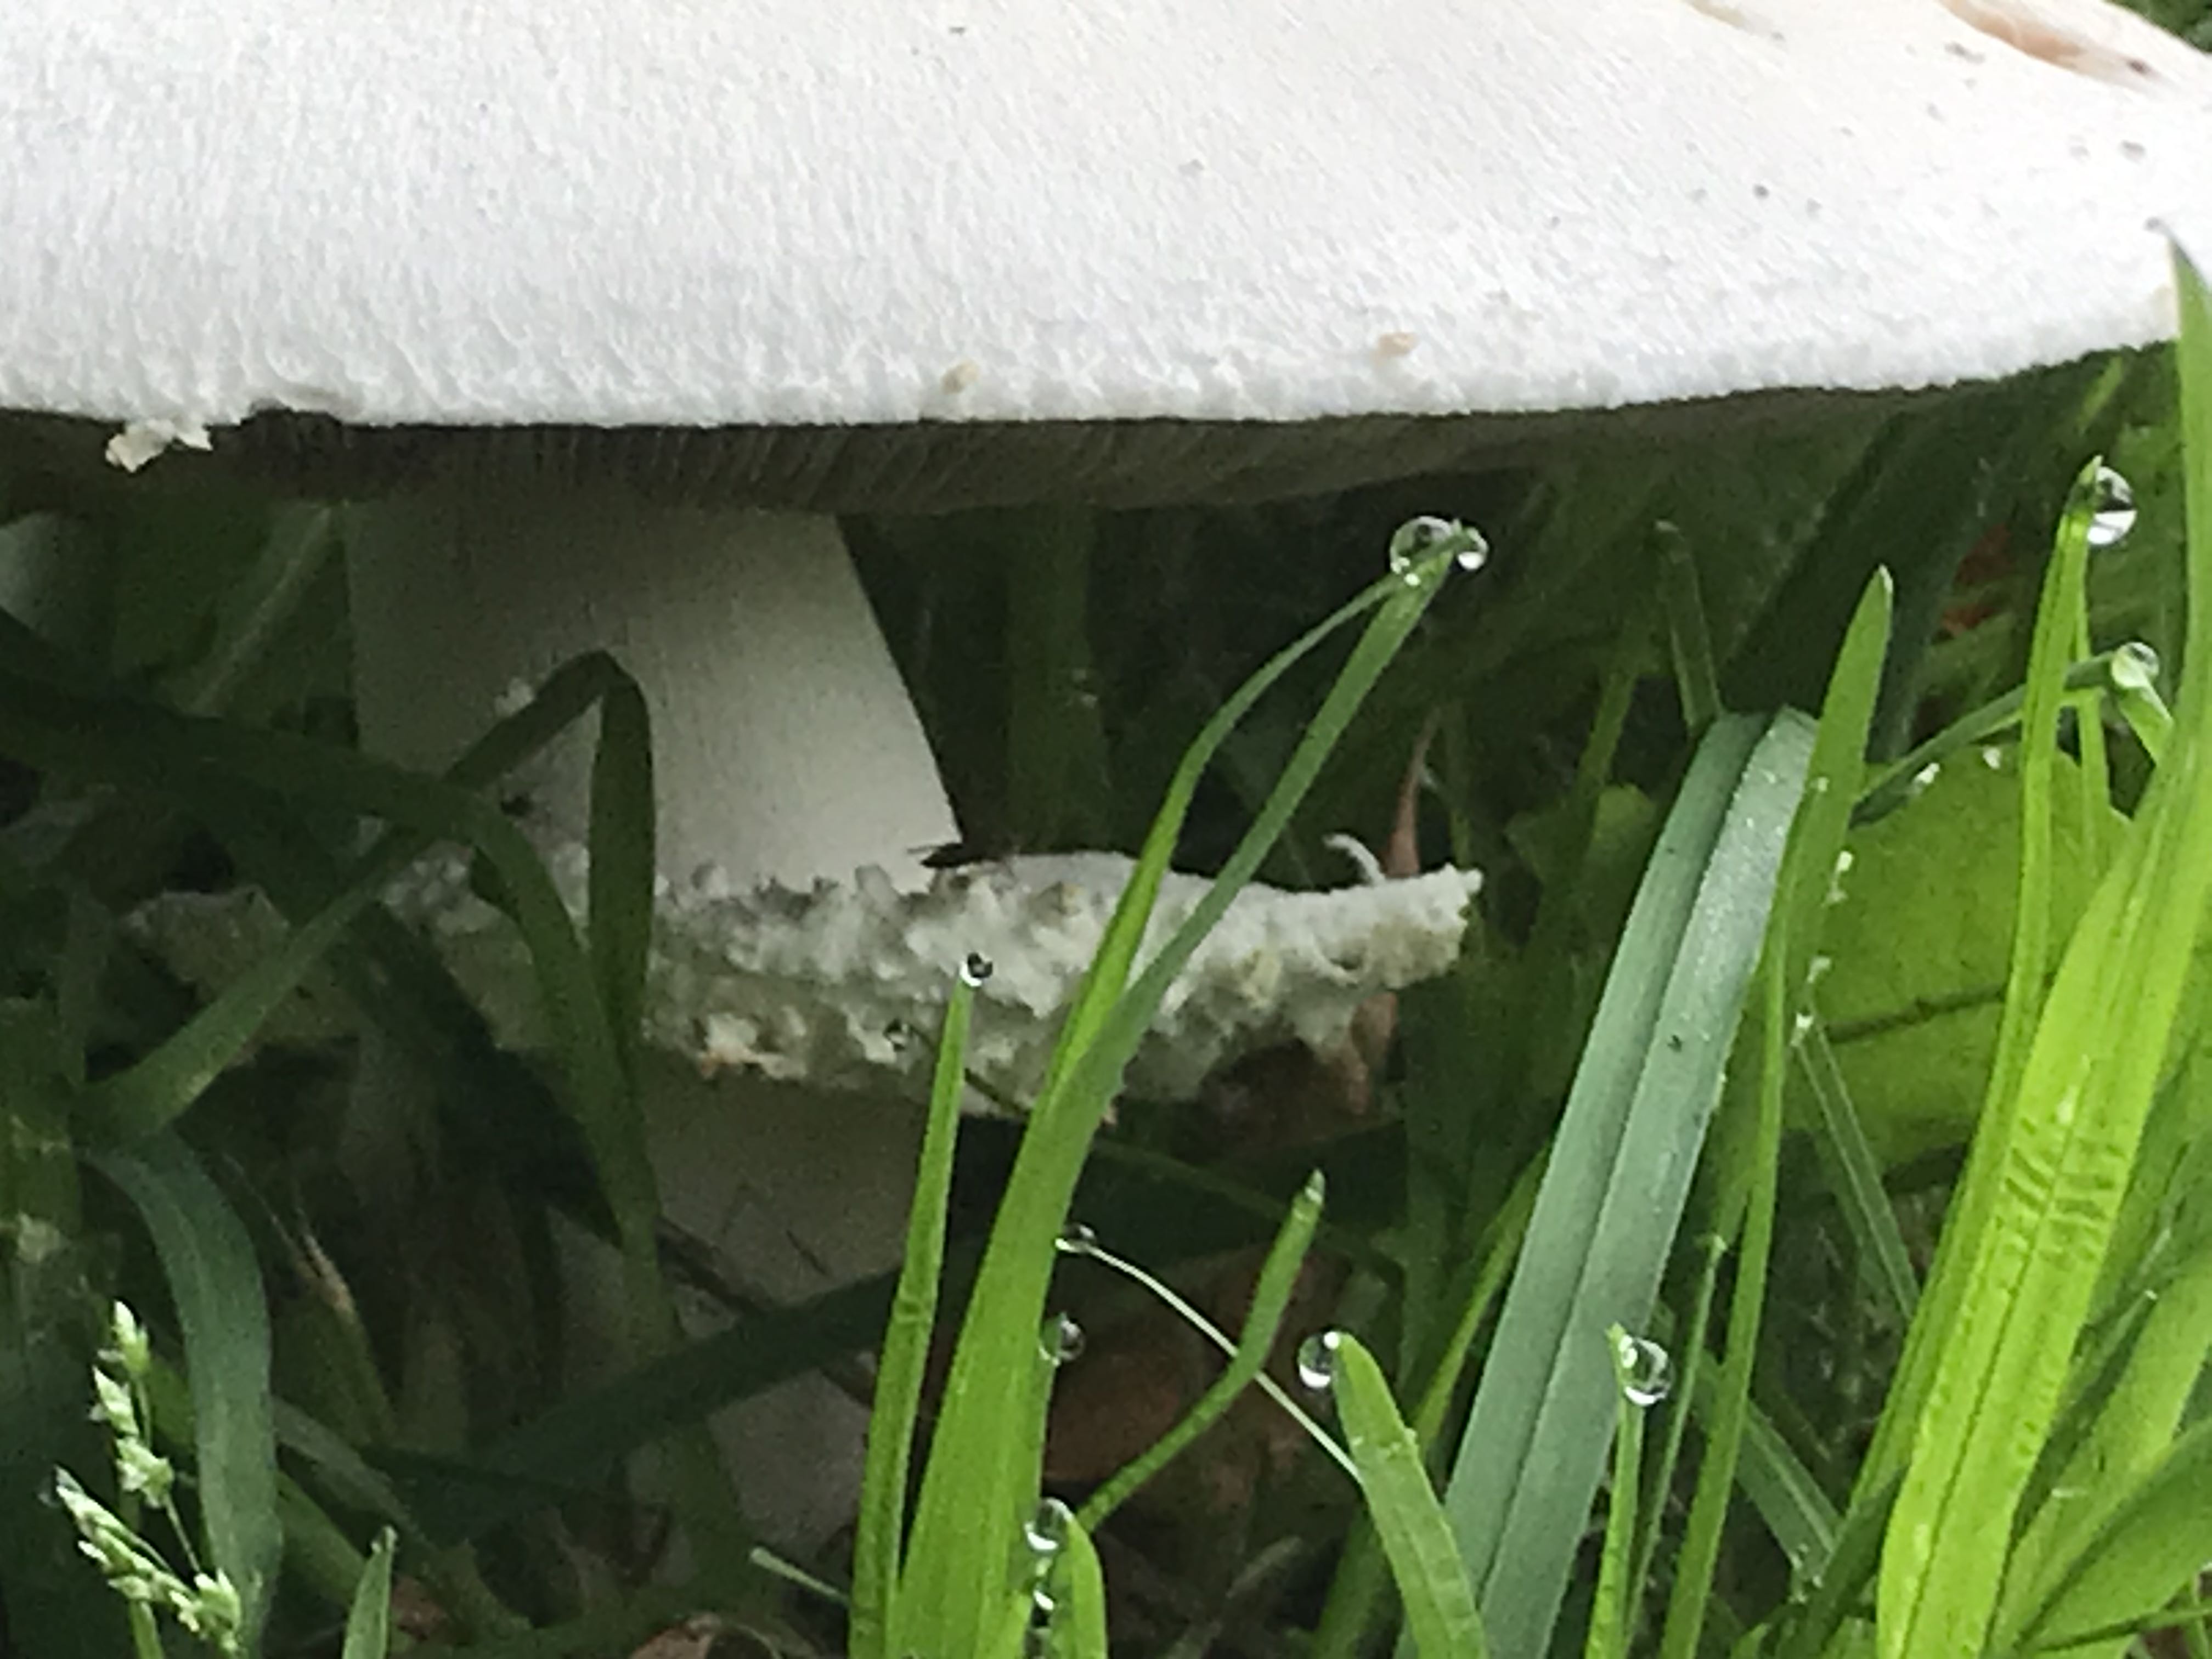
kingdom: Fungi
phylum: Basidiomycota
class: Agaricomycetes
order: Agaricales
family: Agaricaceae
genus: Agaricus
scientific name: Agaricus
